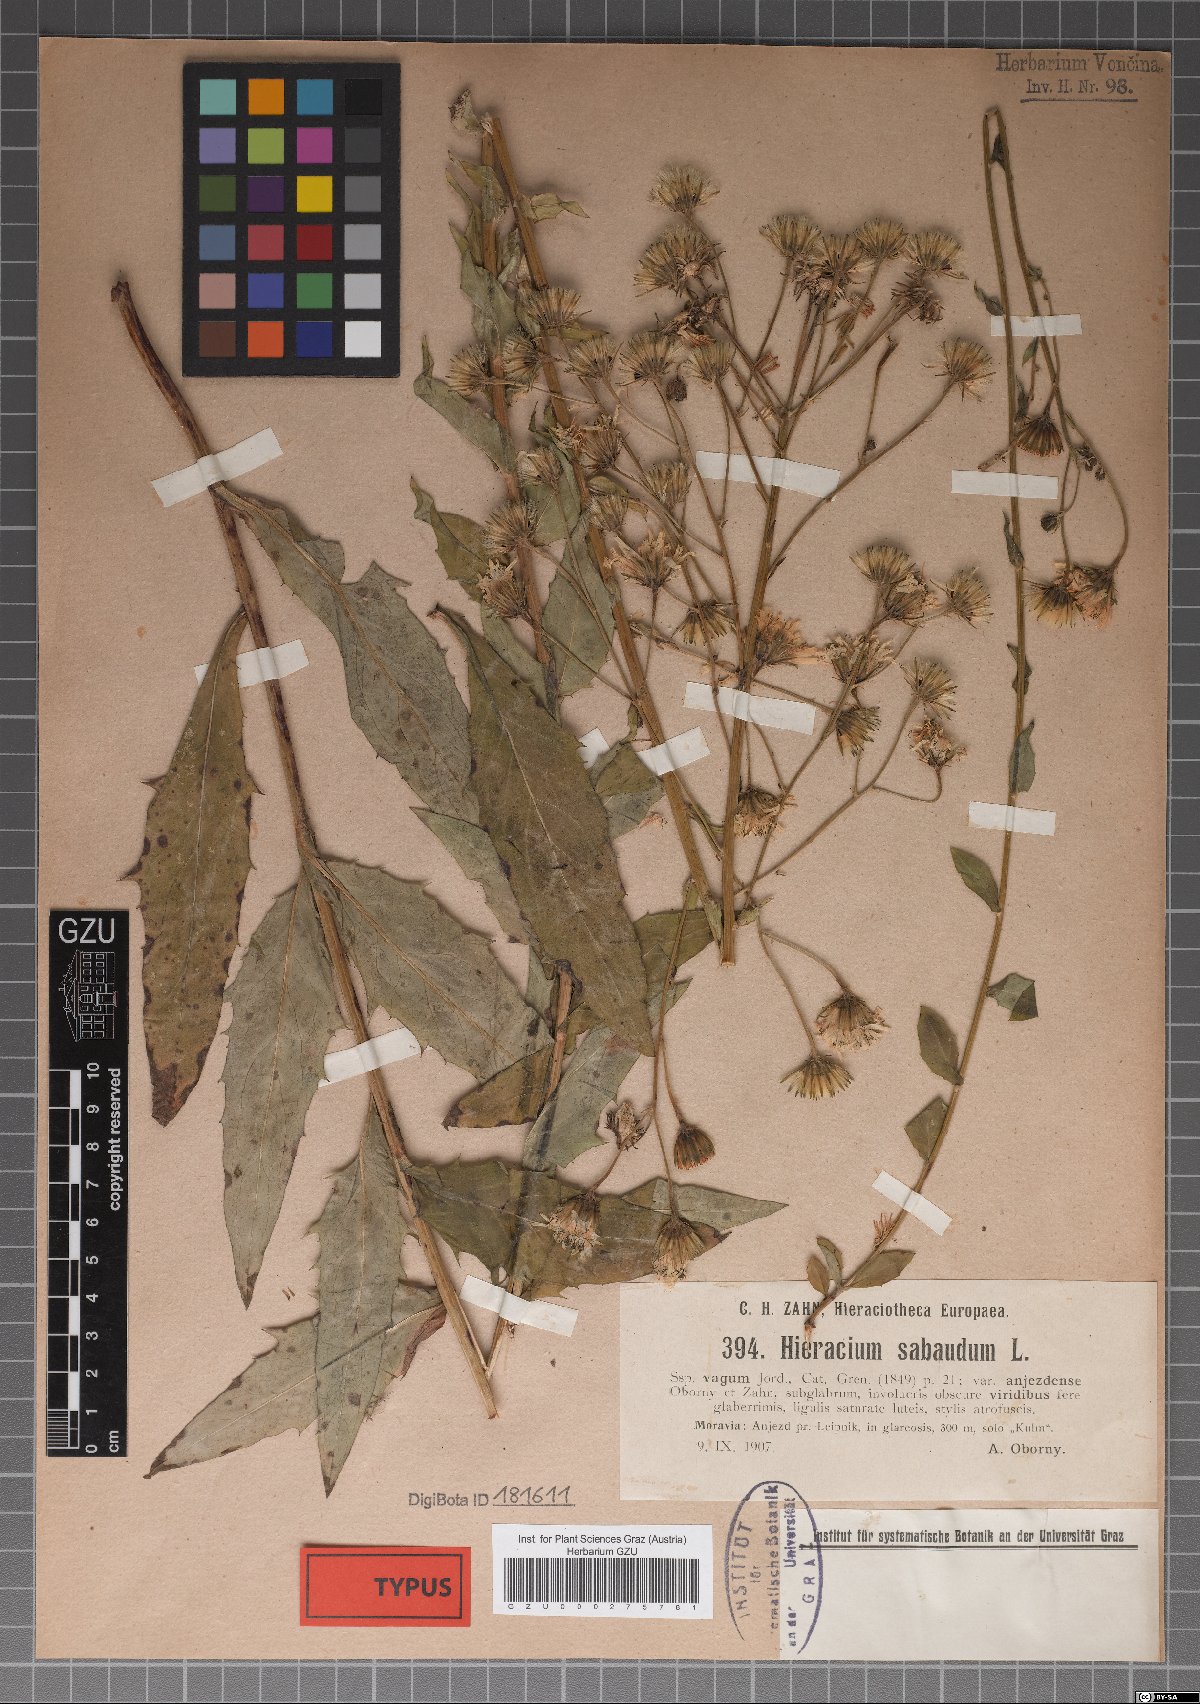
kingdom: Plantae
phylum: Tracheophyta
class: Magnoliopsida
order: Asterales
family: Asteraceae
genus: Hieracium
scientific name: Hieracium sabaudum
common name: New england hawkweed
